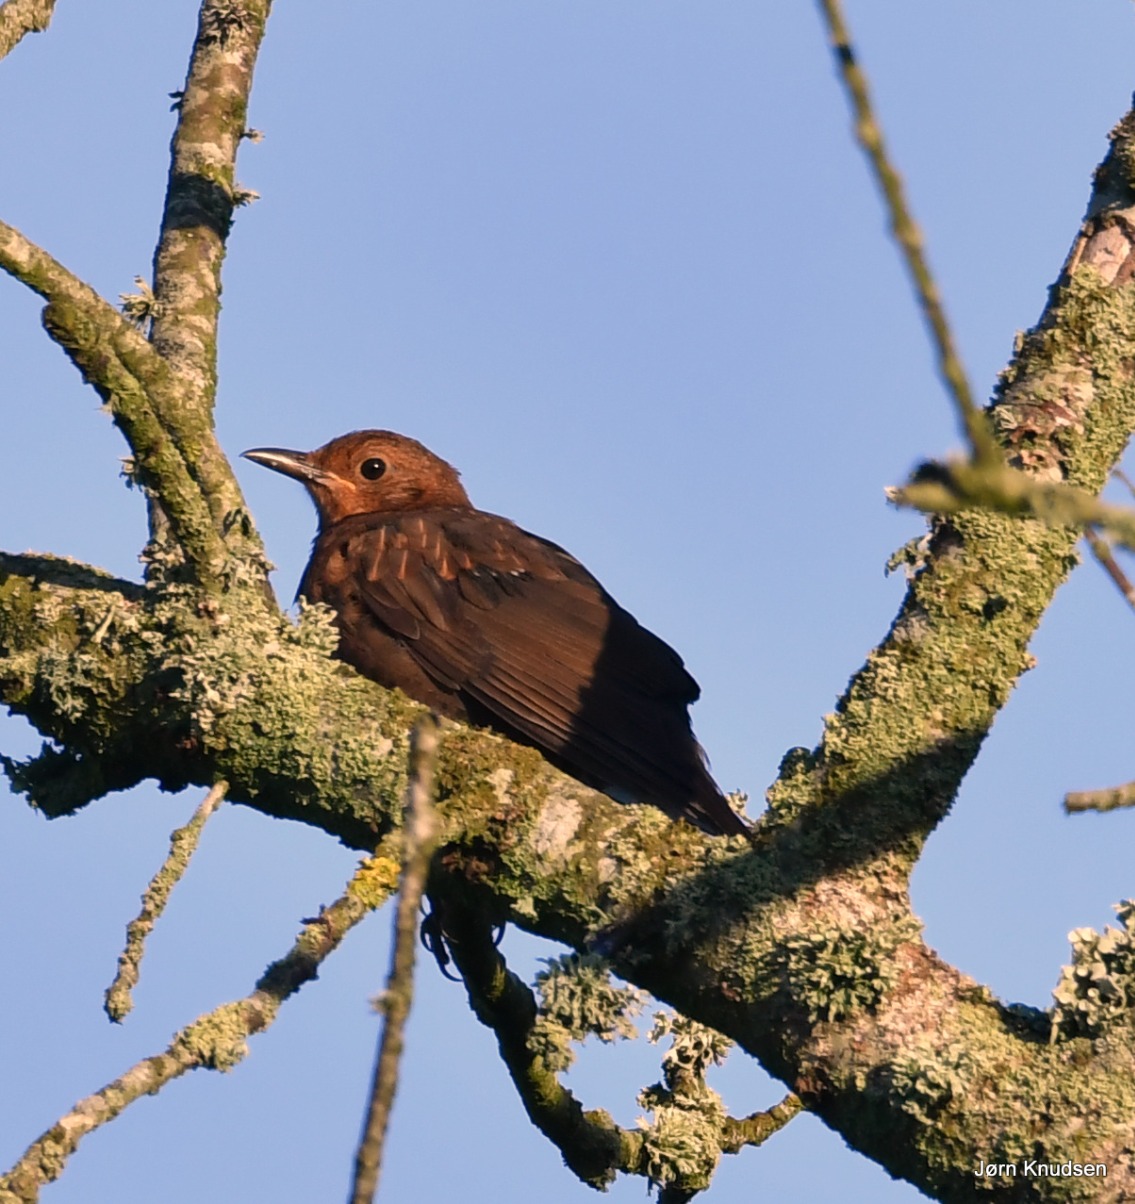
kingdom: Animalia
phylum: Chordata
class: Aves
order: Passeriformes
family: Turdidae
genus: Turdus
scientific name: Turdus merula
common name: Solsort
